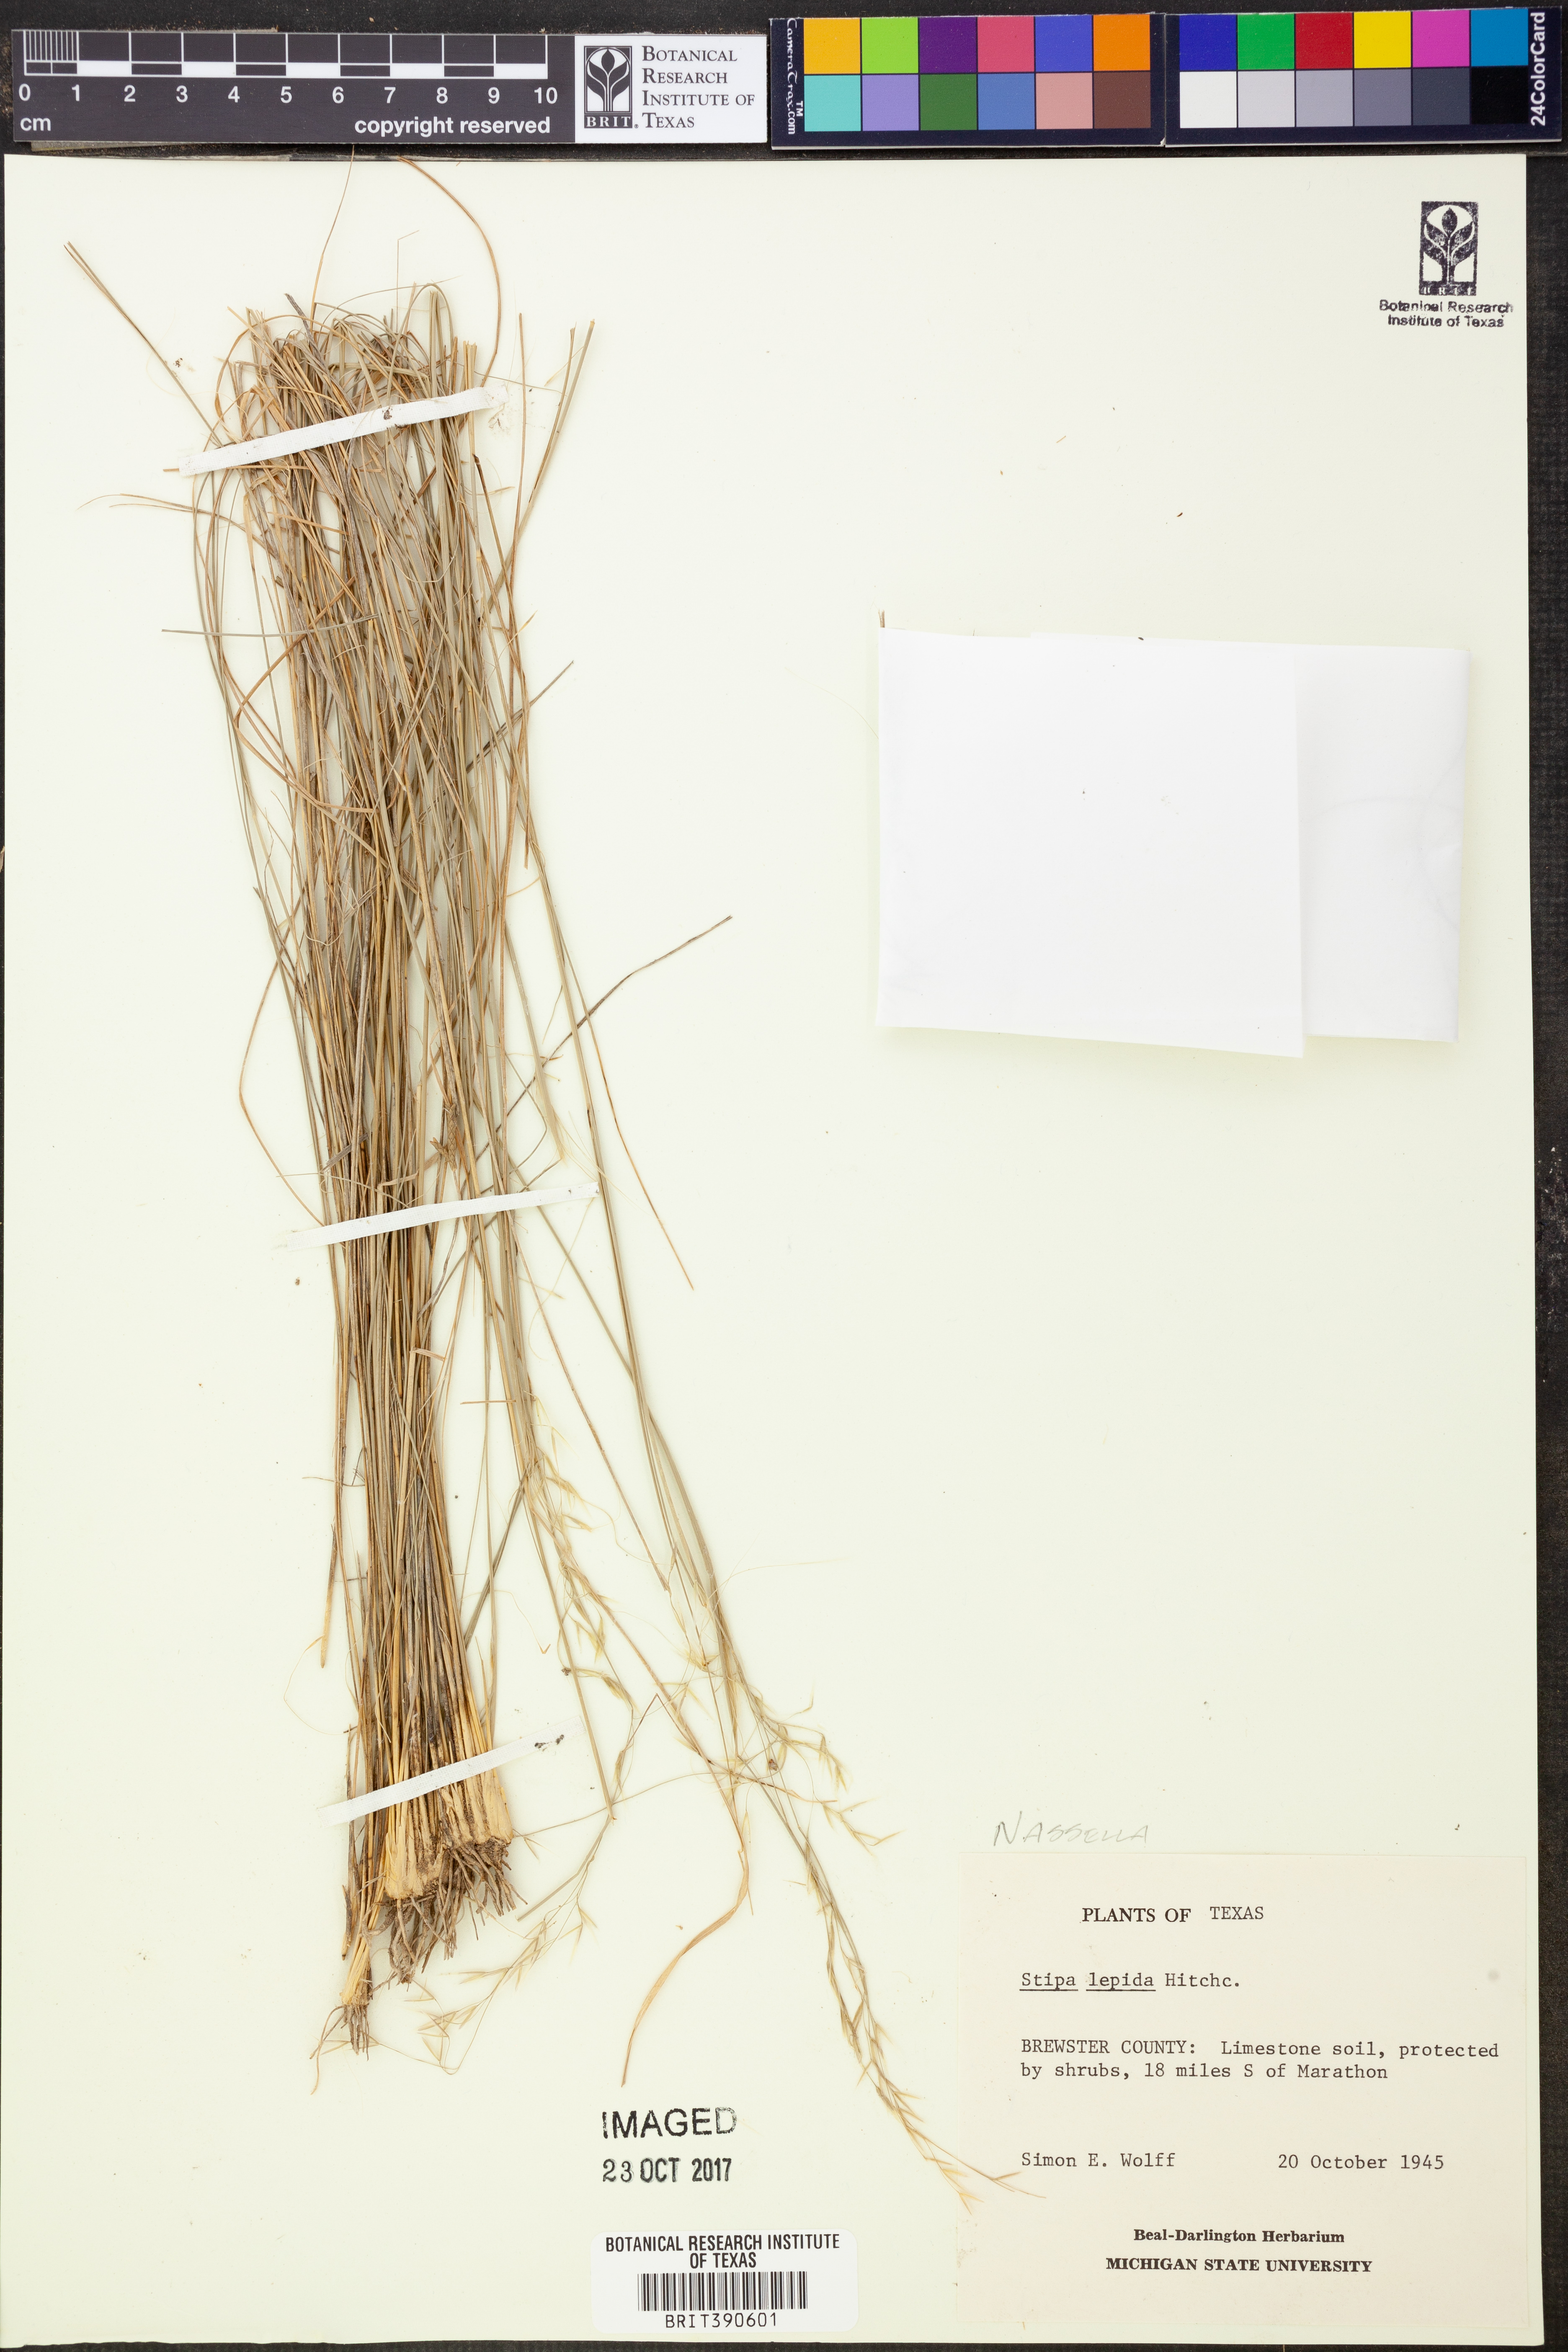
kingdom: Plantae
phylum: Tracheophyta
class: Liliopsida
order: Poales
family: Poaceae
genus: Nassella
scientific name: Nassella lepida
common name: Foothill needlegrass
